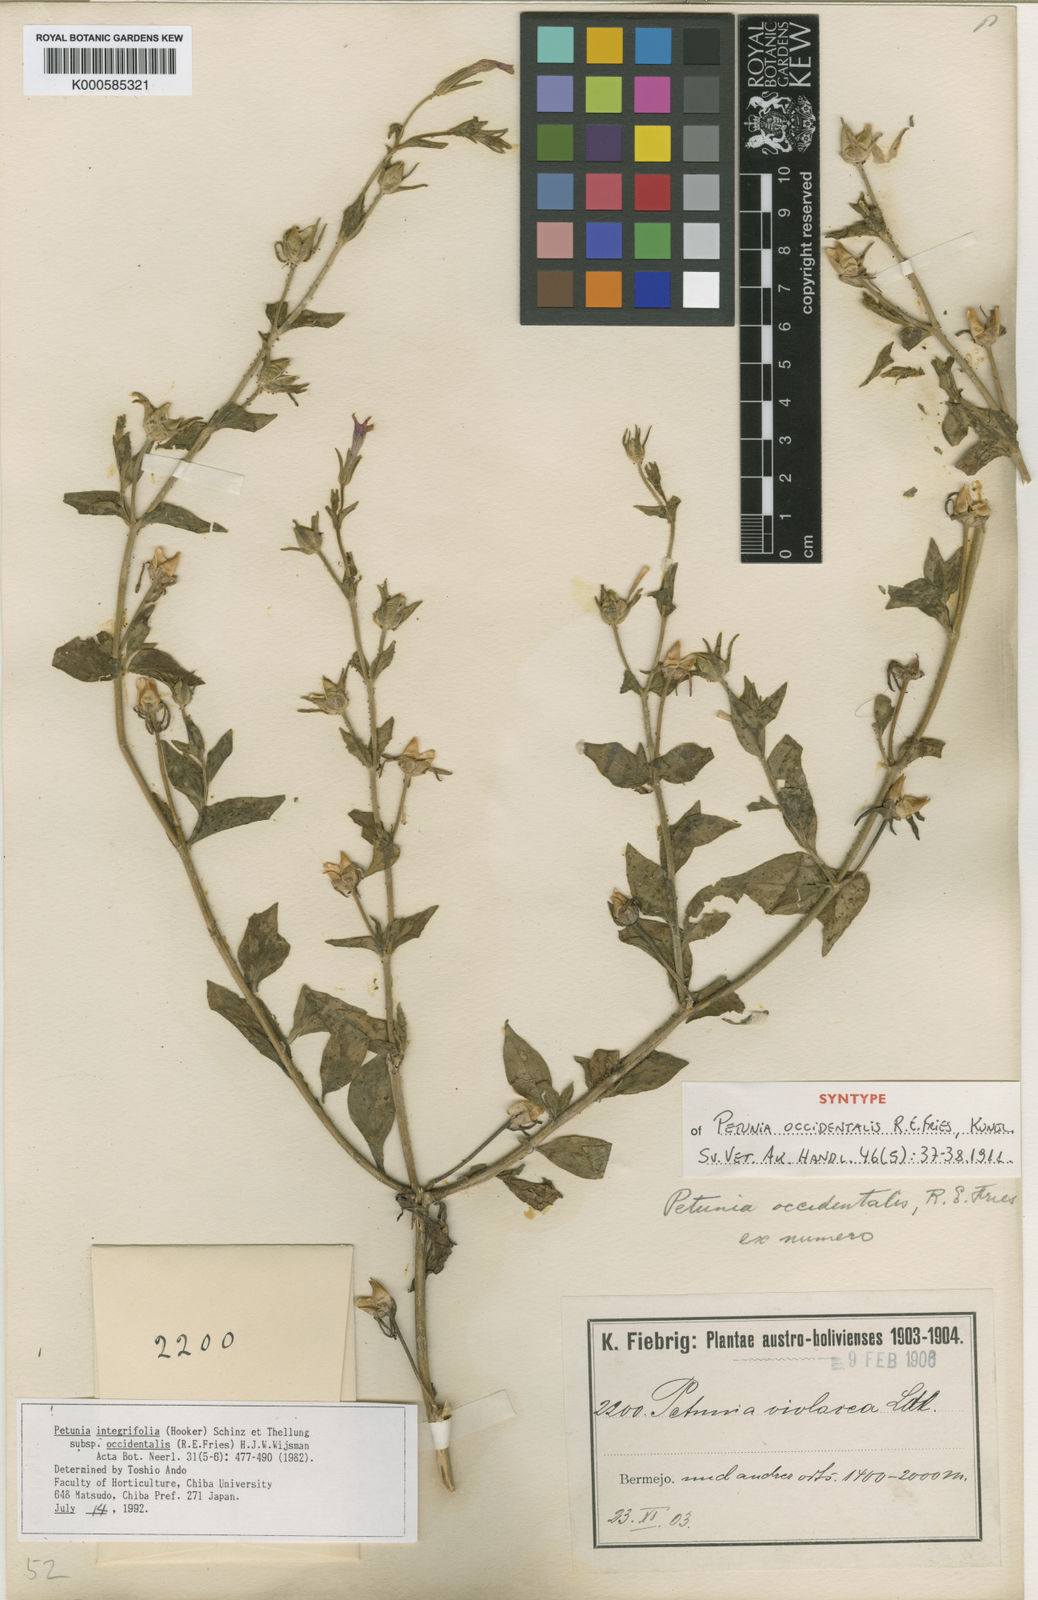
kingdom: Plantae
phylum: Tracheophyta
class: Magnoliopsida
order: Solanales
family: Solanaceae
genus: Petunia
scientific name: Petunia occidentalis
